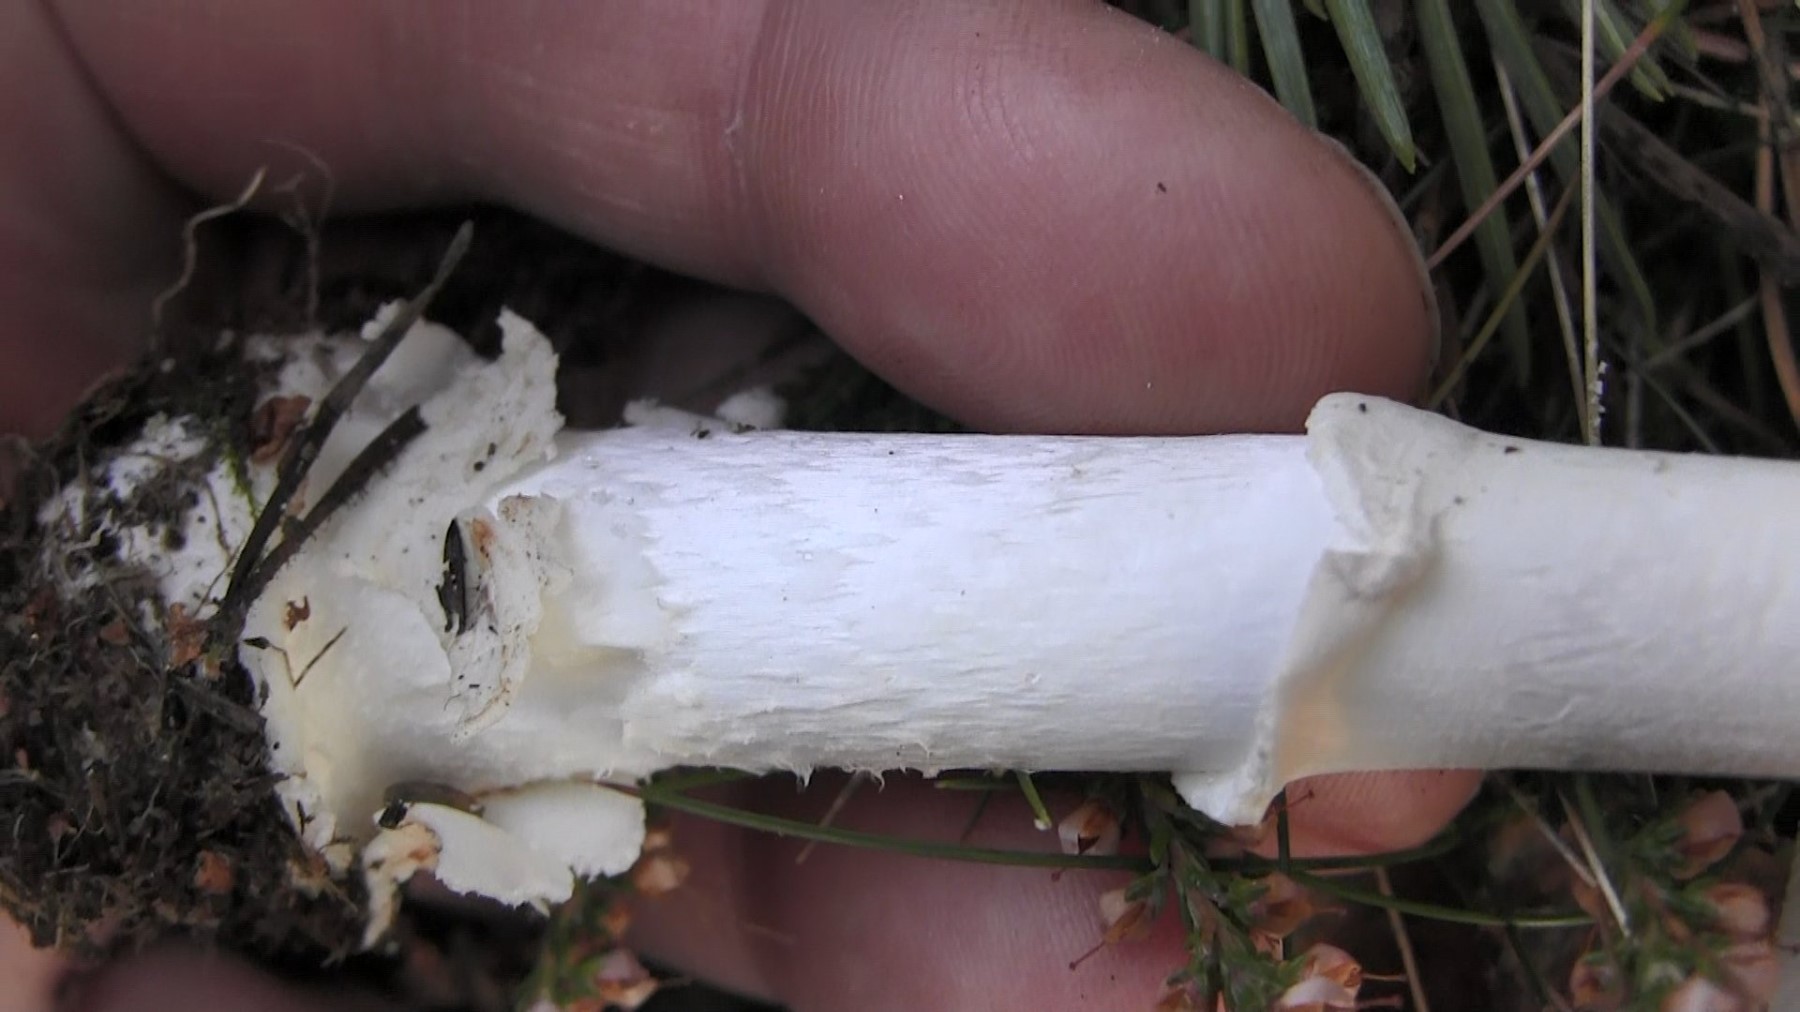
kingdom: Fungi
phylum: Basidiomycota
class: Agaricomycetes
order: Agaricales
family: Amanitaceae
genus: Amanita
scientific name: Amanita virosa
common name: snehvid fluesvamp
